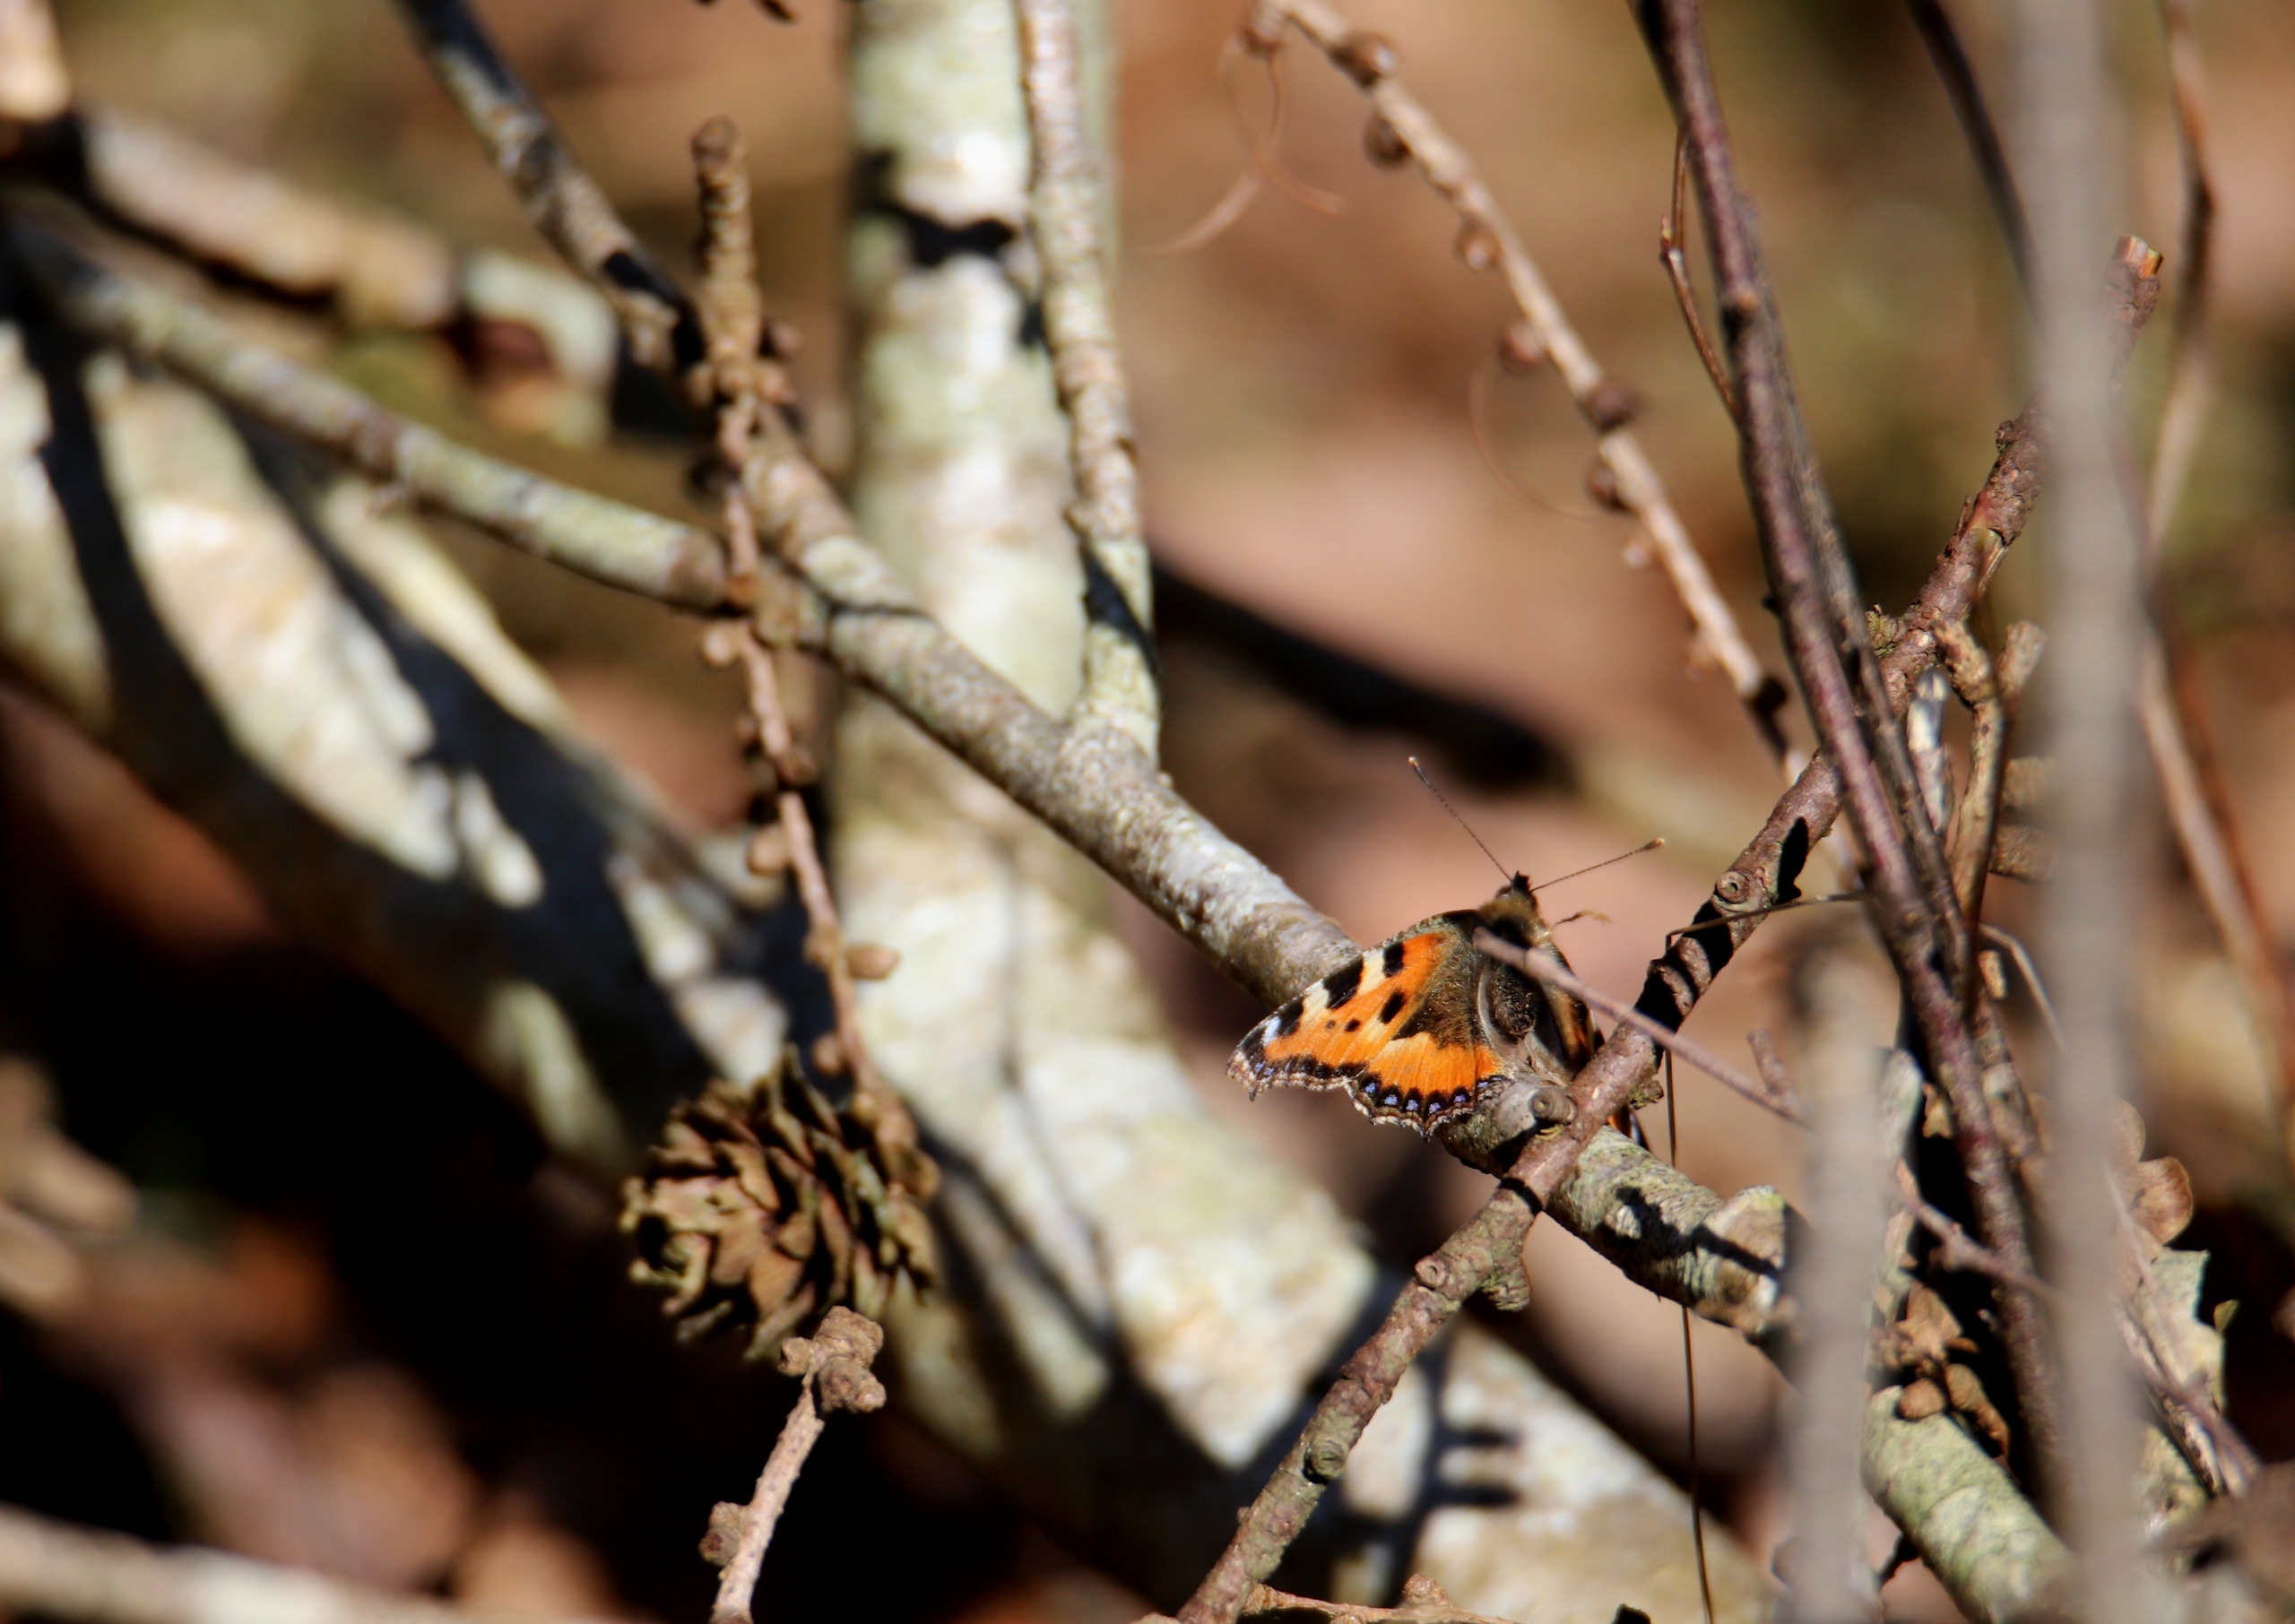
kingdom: Animalia
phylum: Arthropoda
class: Insecta
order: Lepidoptera
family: Nymphalidae
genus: Aglais
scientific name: Aglais urticae
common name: Nældens takvinge
